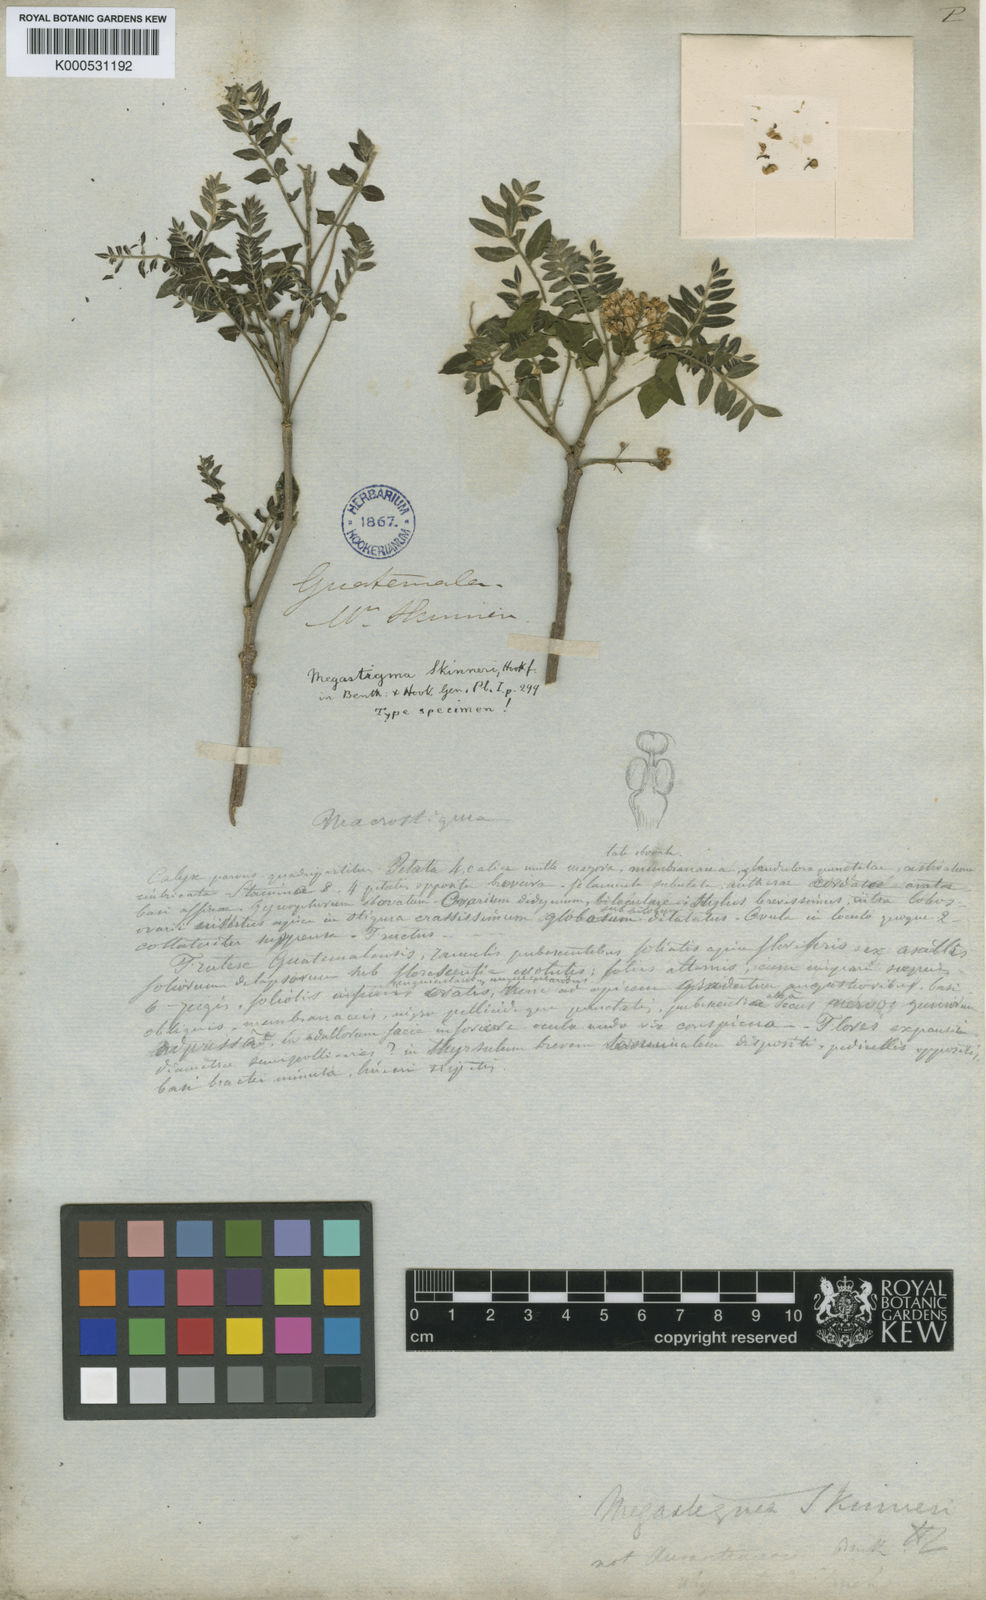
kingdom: Plantae
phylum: Tracheophyta
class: Magnoliopsida
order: Sapindales
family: Rutaceae
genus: Megastigma
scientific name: Megastigma skinneri
